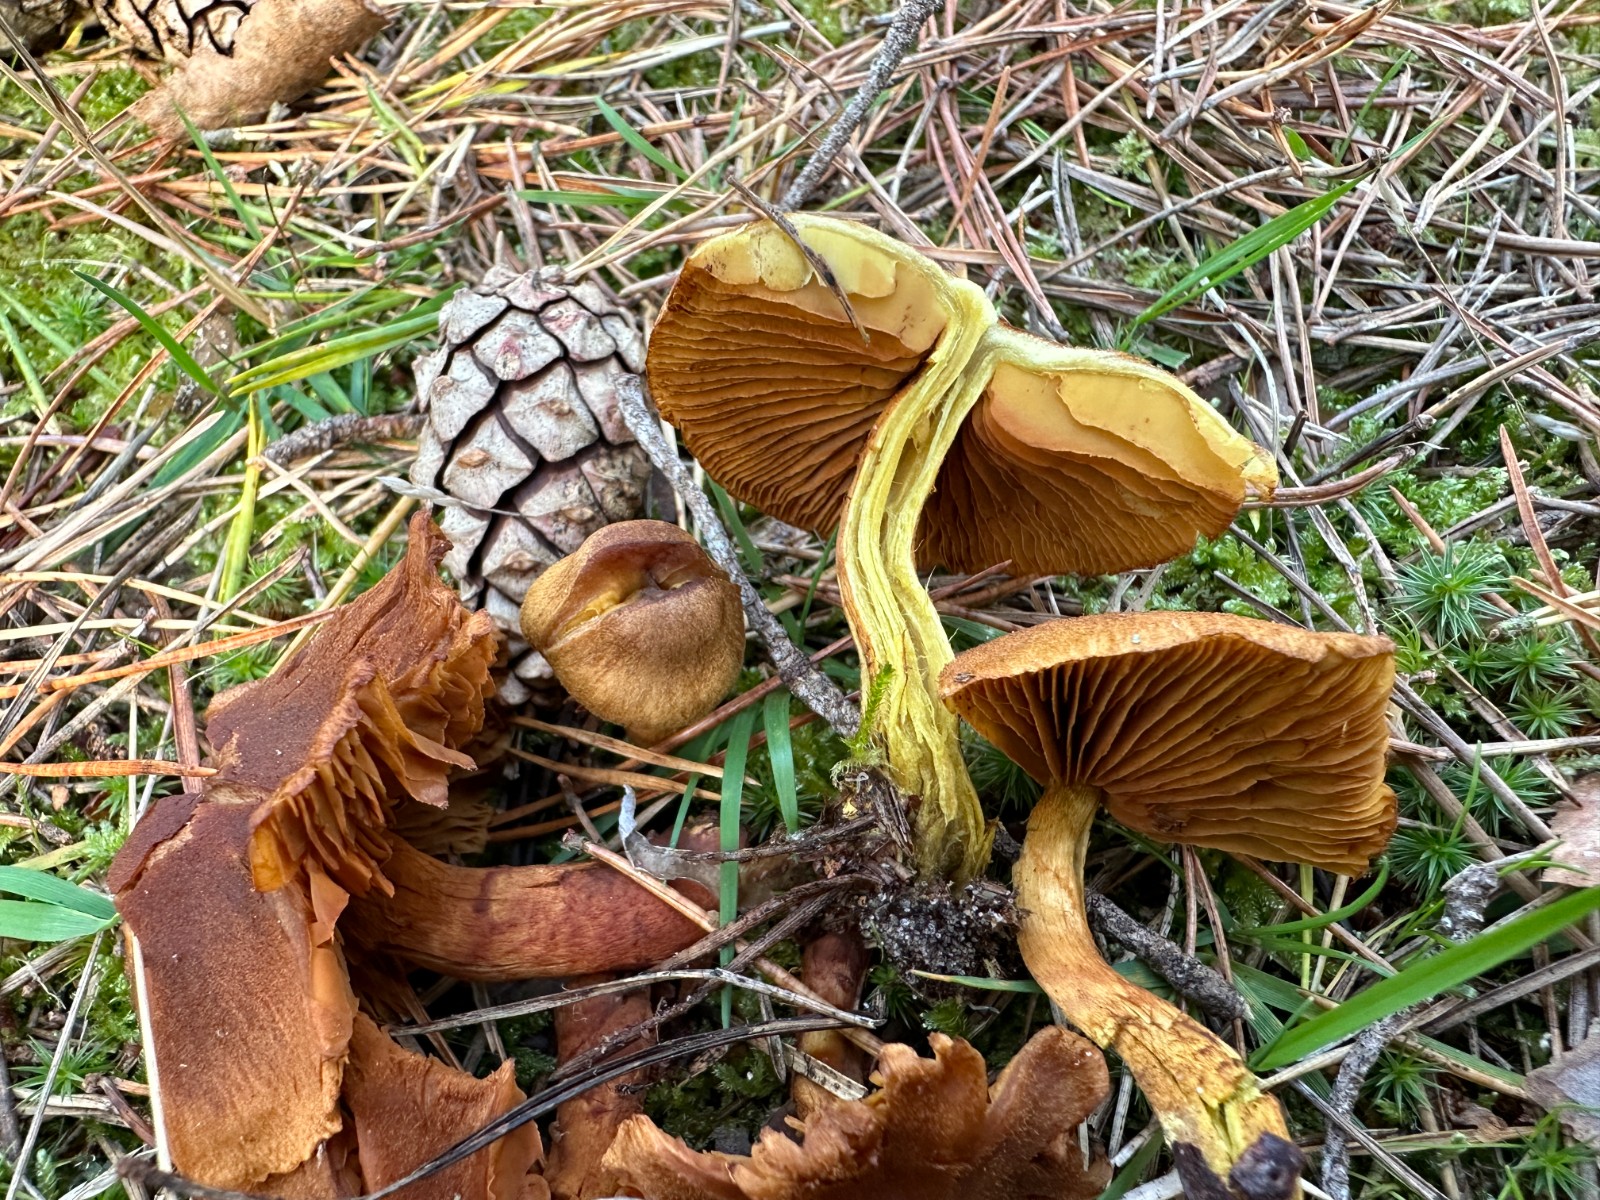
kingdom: Fungi
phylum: Basidiomycota
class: Agaricomycetes
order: Agaricales
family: Cortinariaceae
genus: Cortinarius
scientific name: Cortinarius malicorius
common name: grønkødet slørhat
